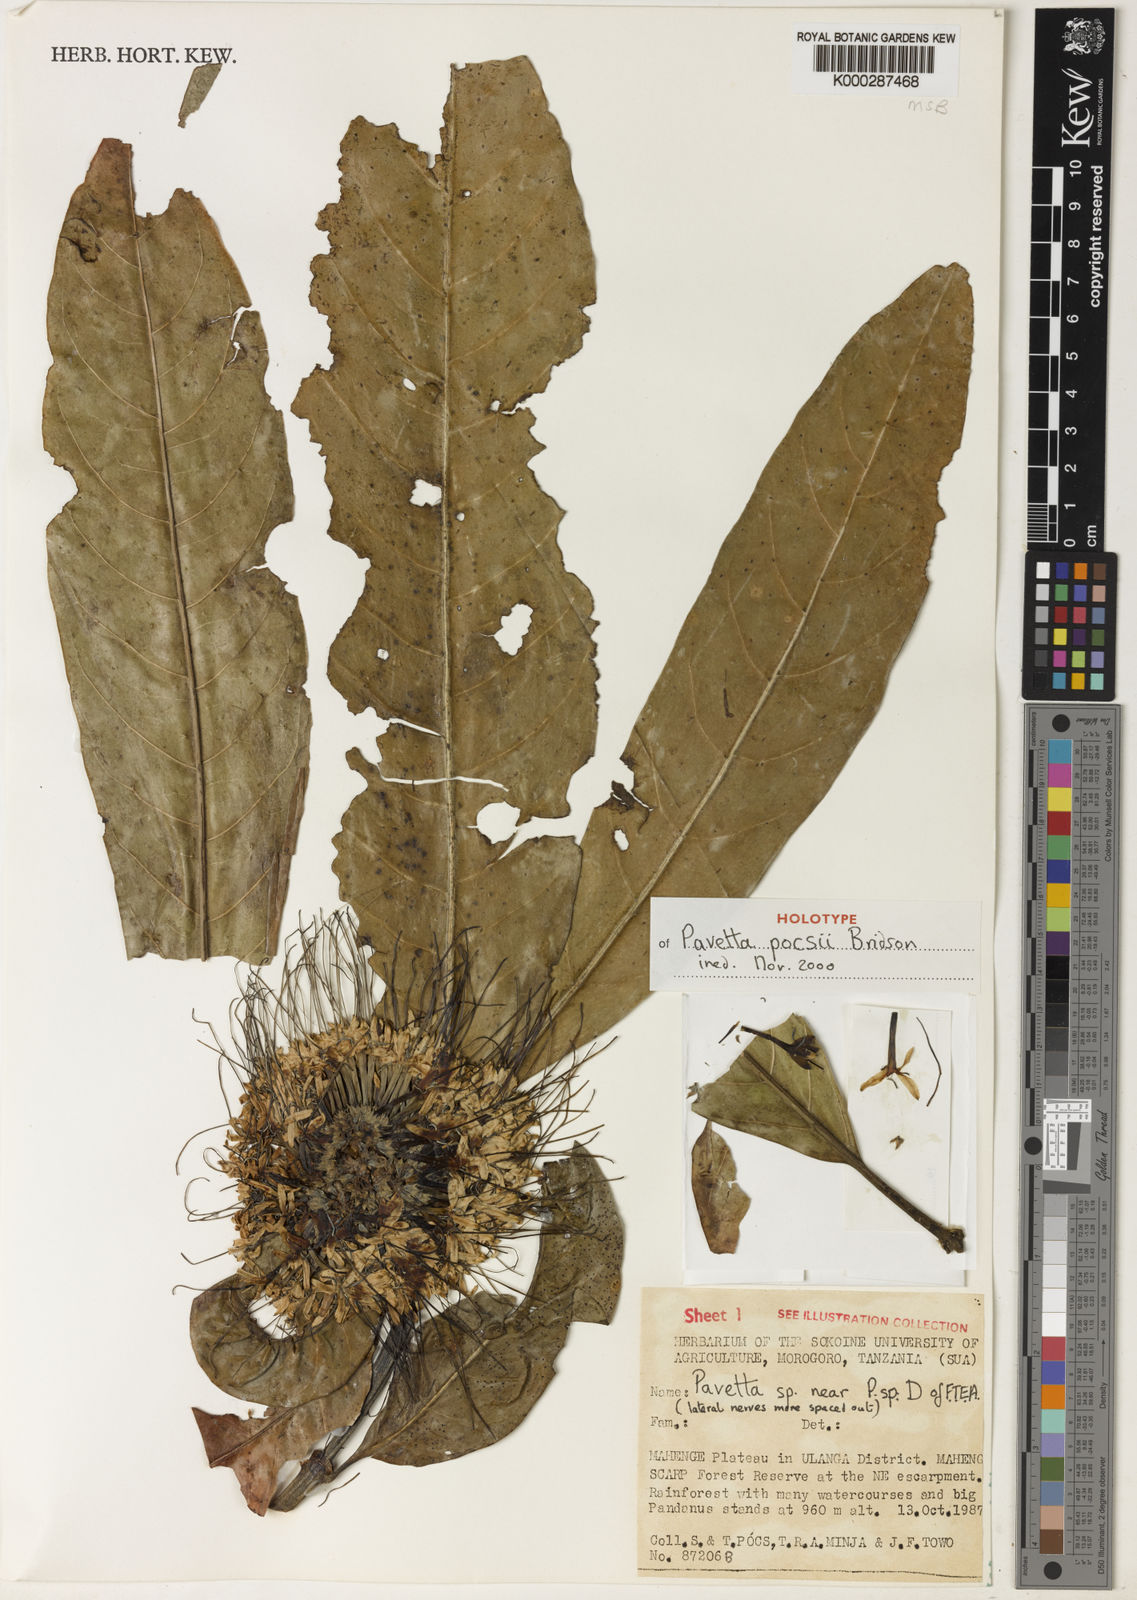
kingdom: Plantae
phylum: Tracheophyta
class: Magnoliopsida
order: Gentianales
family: Rubiaceae
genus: Pavetta
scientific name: Pavetta pocsii
